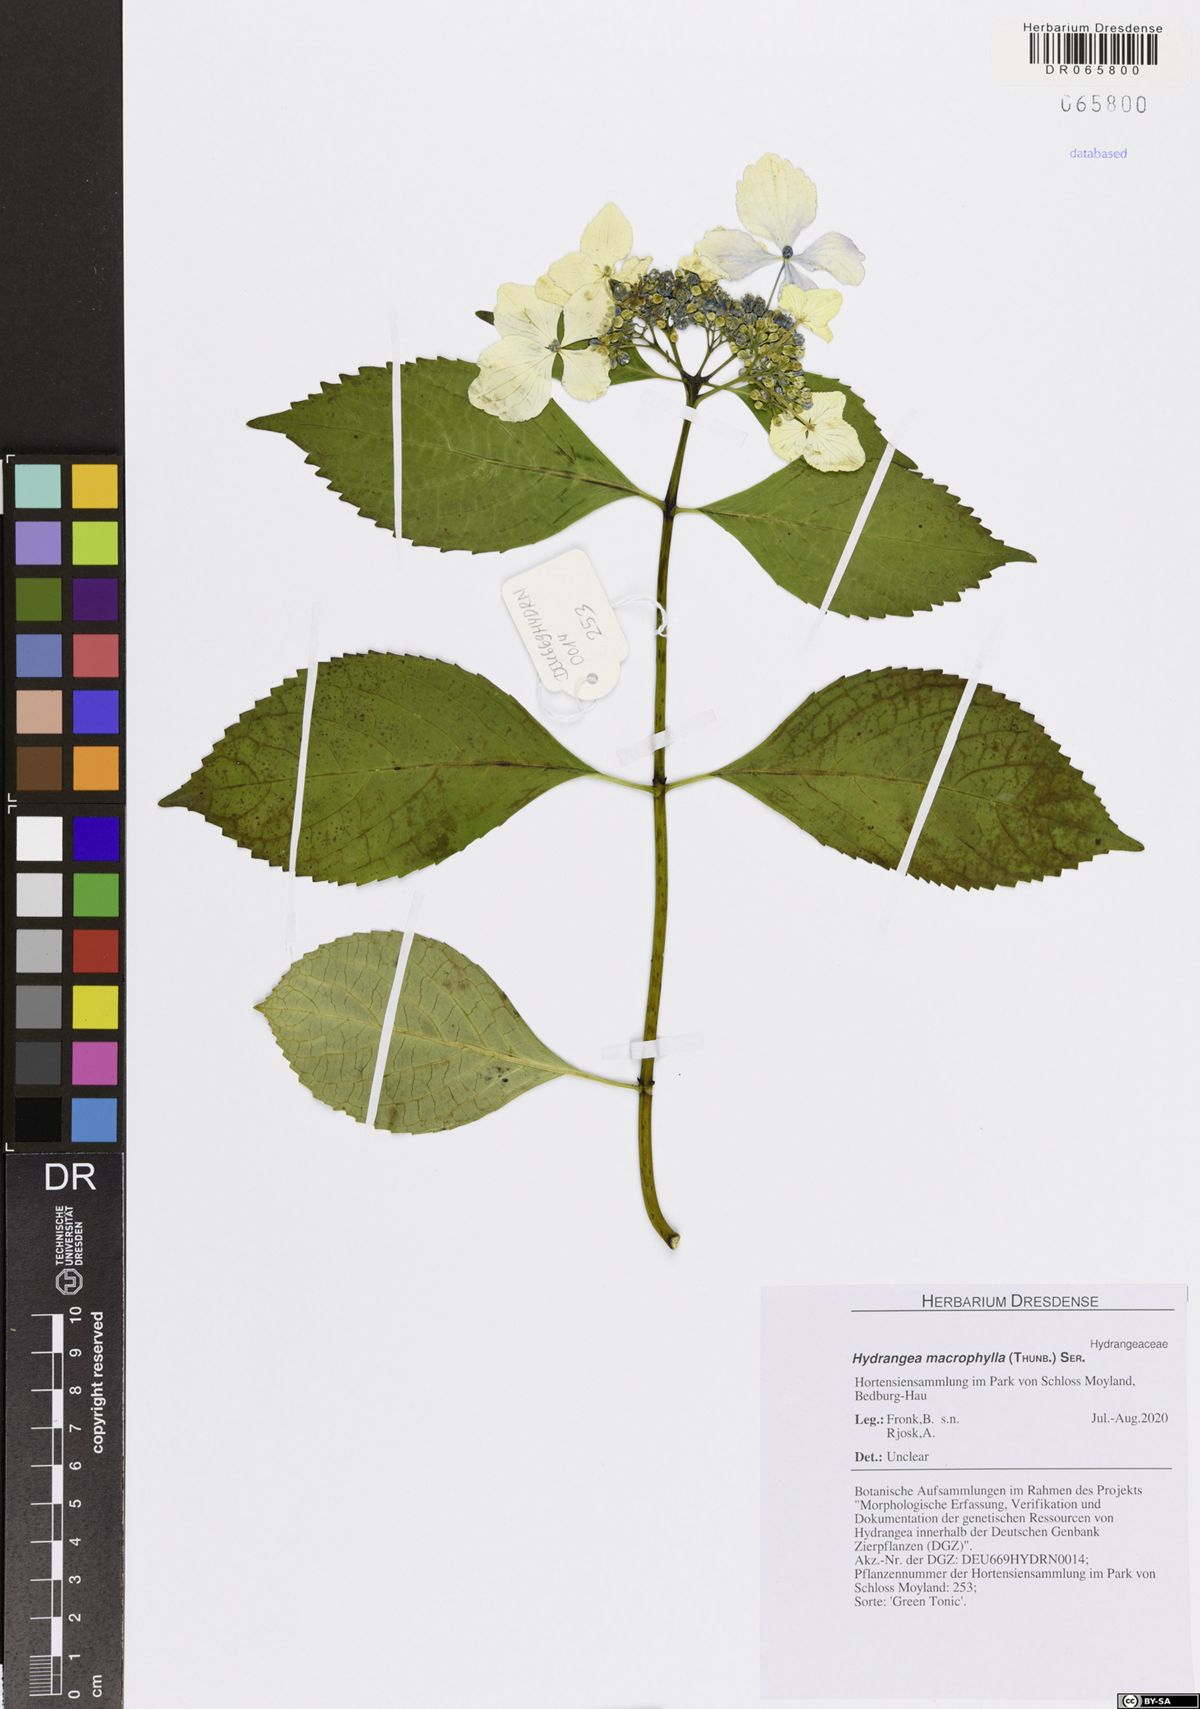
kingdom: Plantae
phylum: Tracheophyta
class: Magnoliopsida
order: Cornales
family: Hydrangeaceae
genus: Hydrangea
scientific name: Hydrangea macrophylla
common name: Hydrangea
